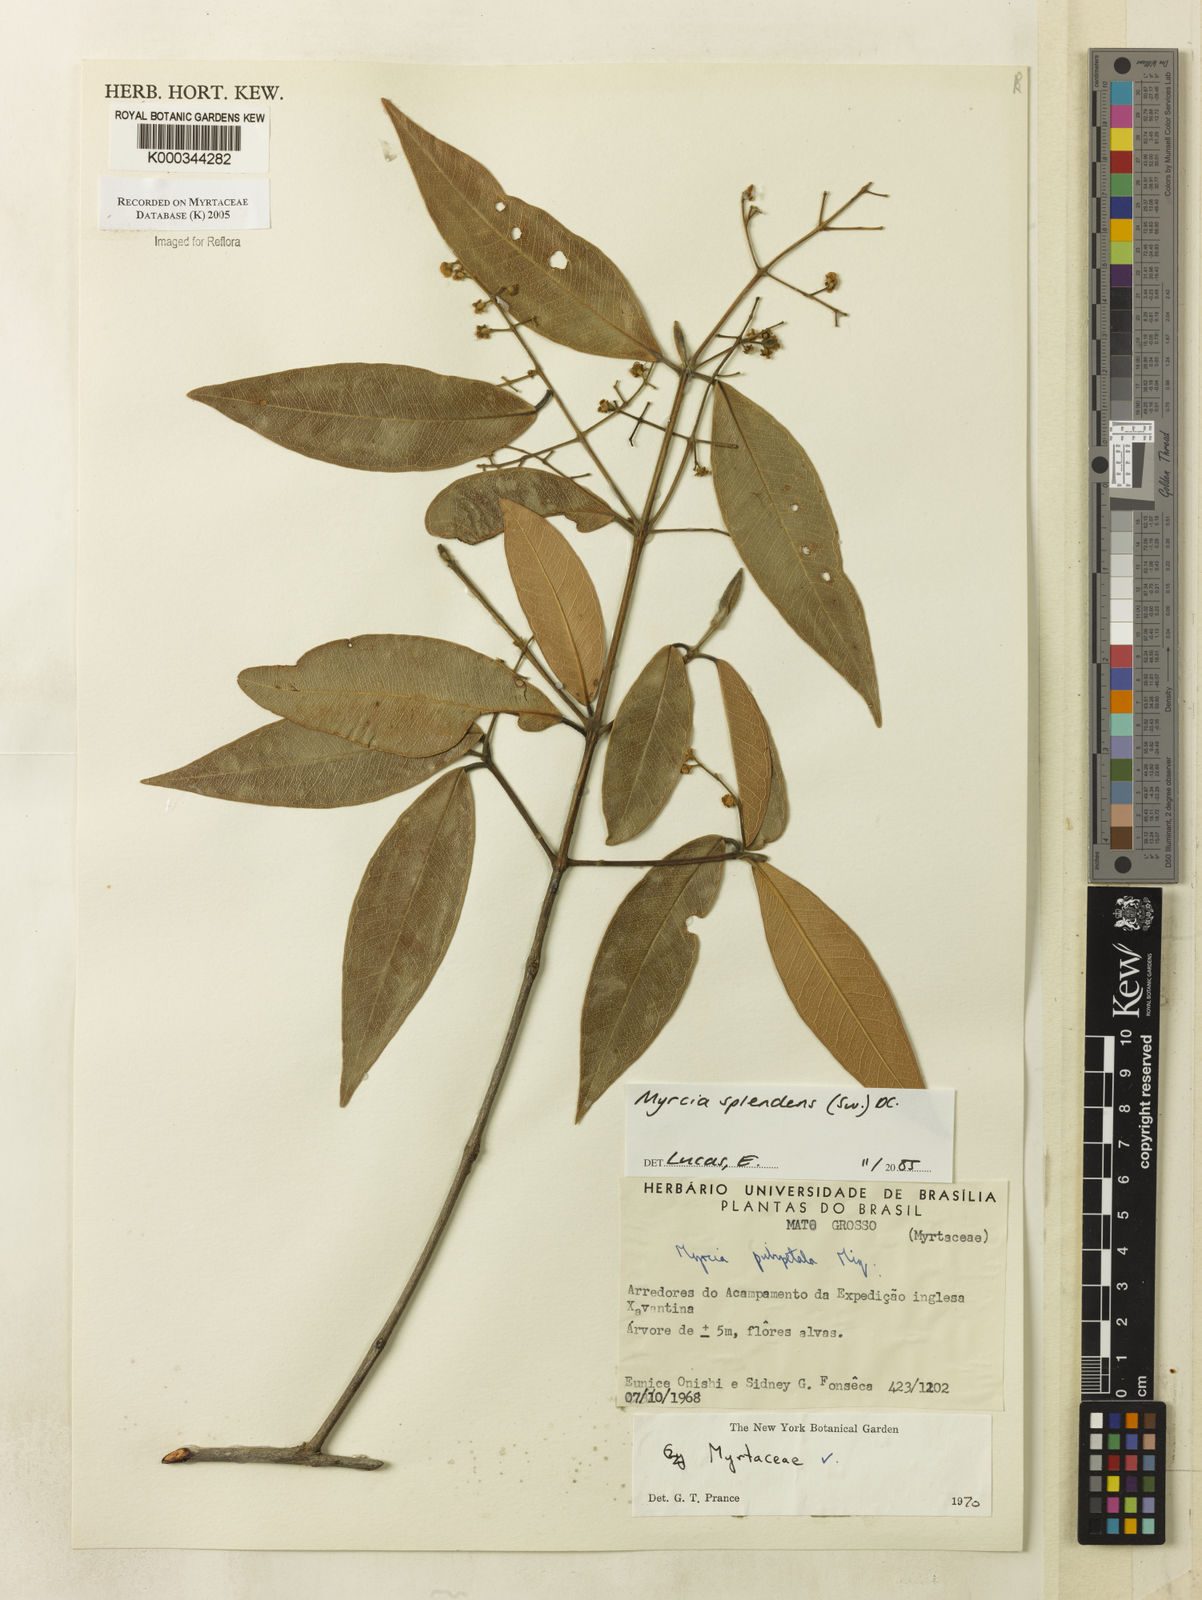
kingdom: Plantae
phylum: Tracheophyta
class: Magnoliopsida
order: Myrtales
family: Myrtaceae
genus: Myrcia
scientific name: Myrcia splendens
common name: Surinam cherry
